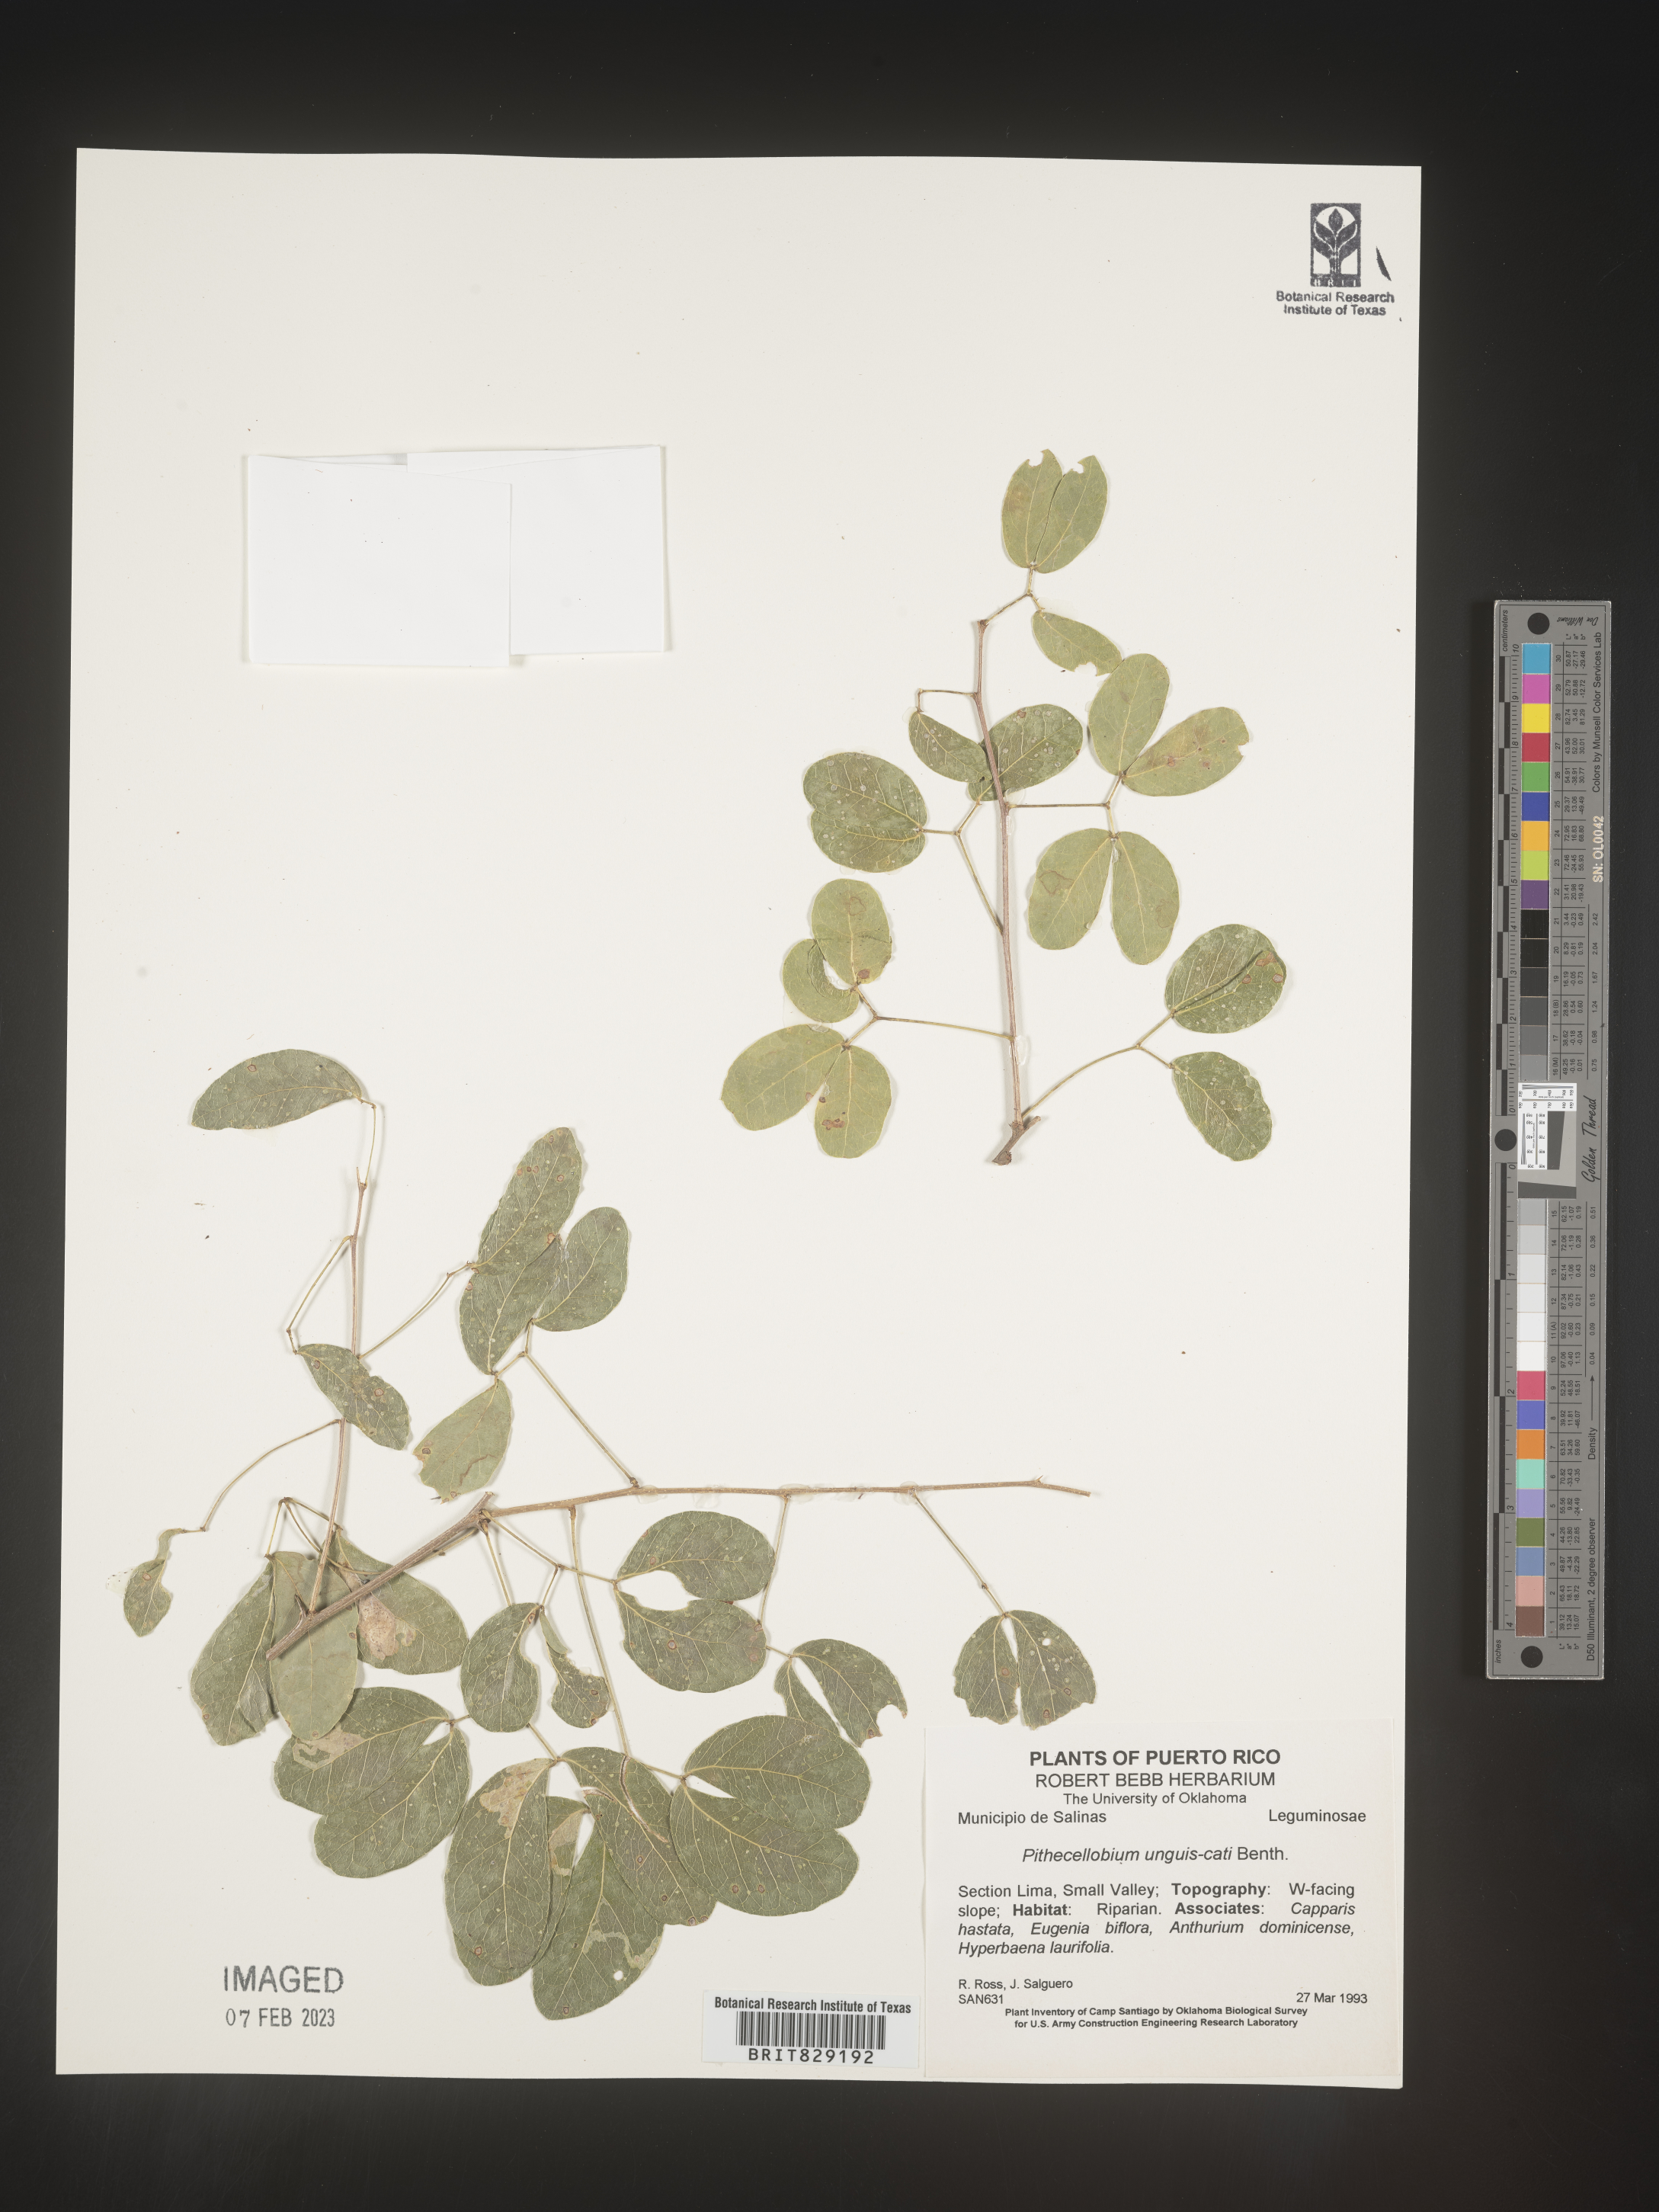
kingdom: Plantae
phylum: Tracheophyta
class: Magnoliopsida
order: Fabales
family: Fabaceae
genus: Pithecellobium
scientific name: Pithecellobium
